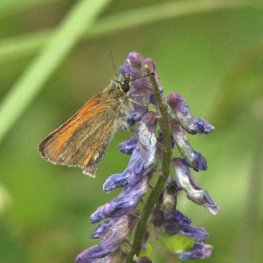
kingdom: Animalia
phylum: Arthropoda
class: Insecta
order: Lepidoptera
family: Hesperiidae
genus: Thymelicus
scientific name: Thymelicus lineola
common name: European Skipper
